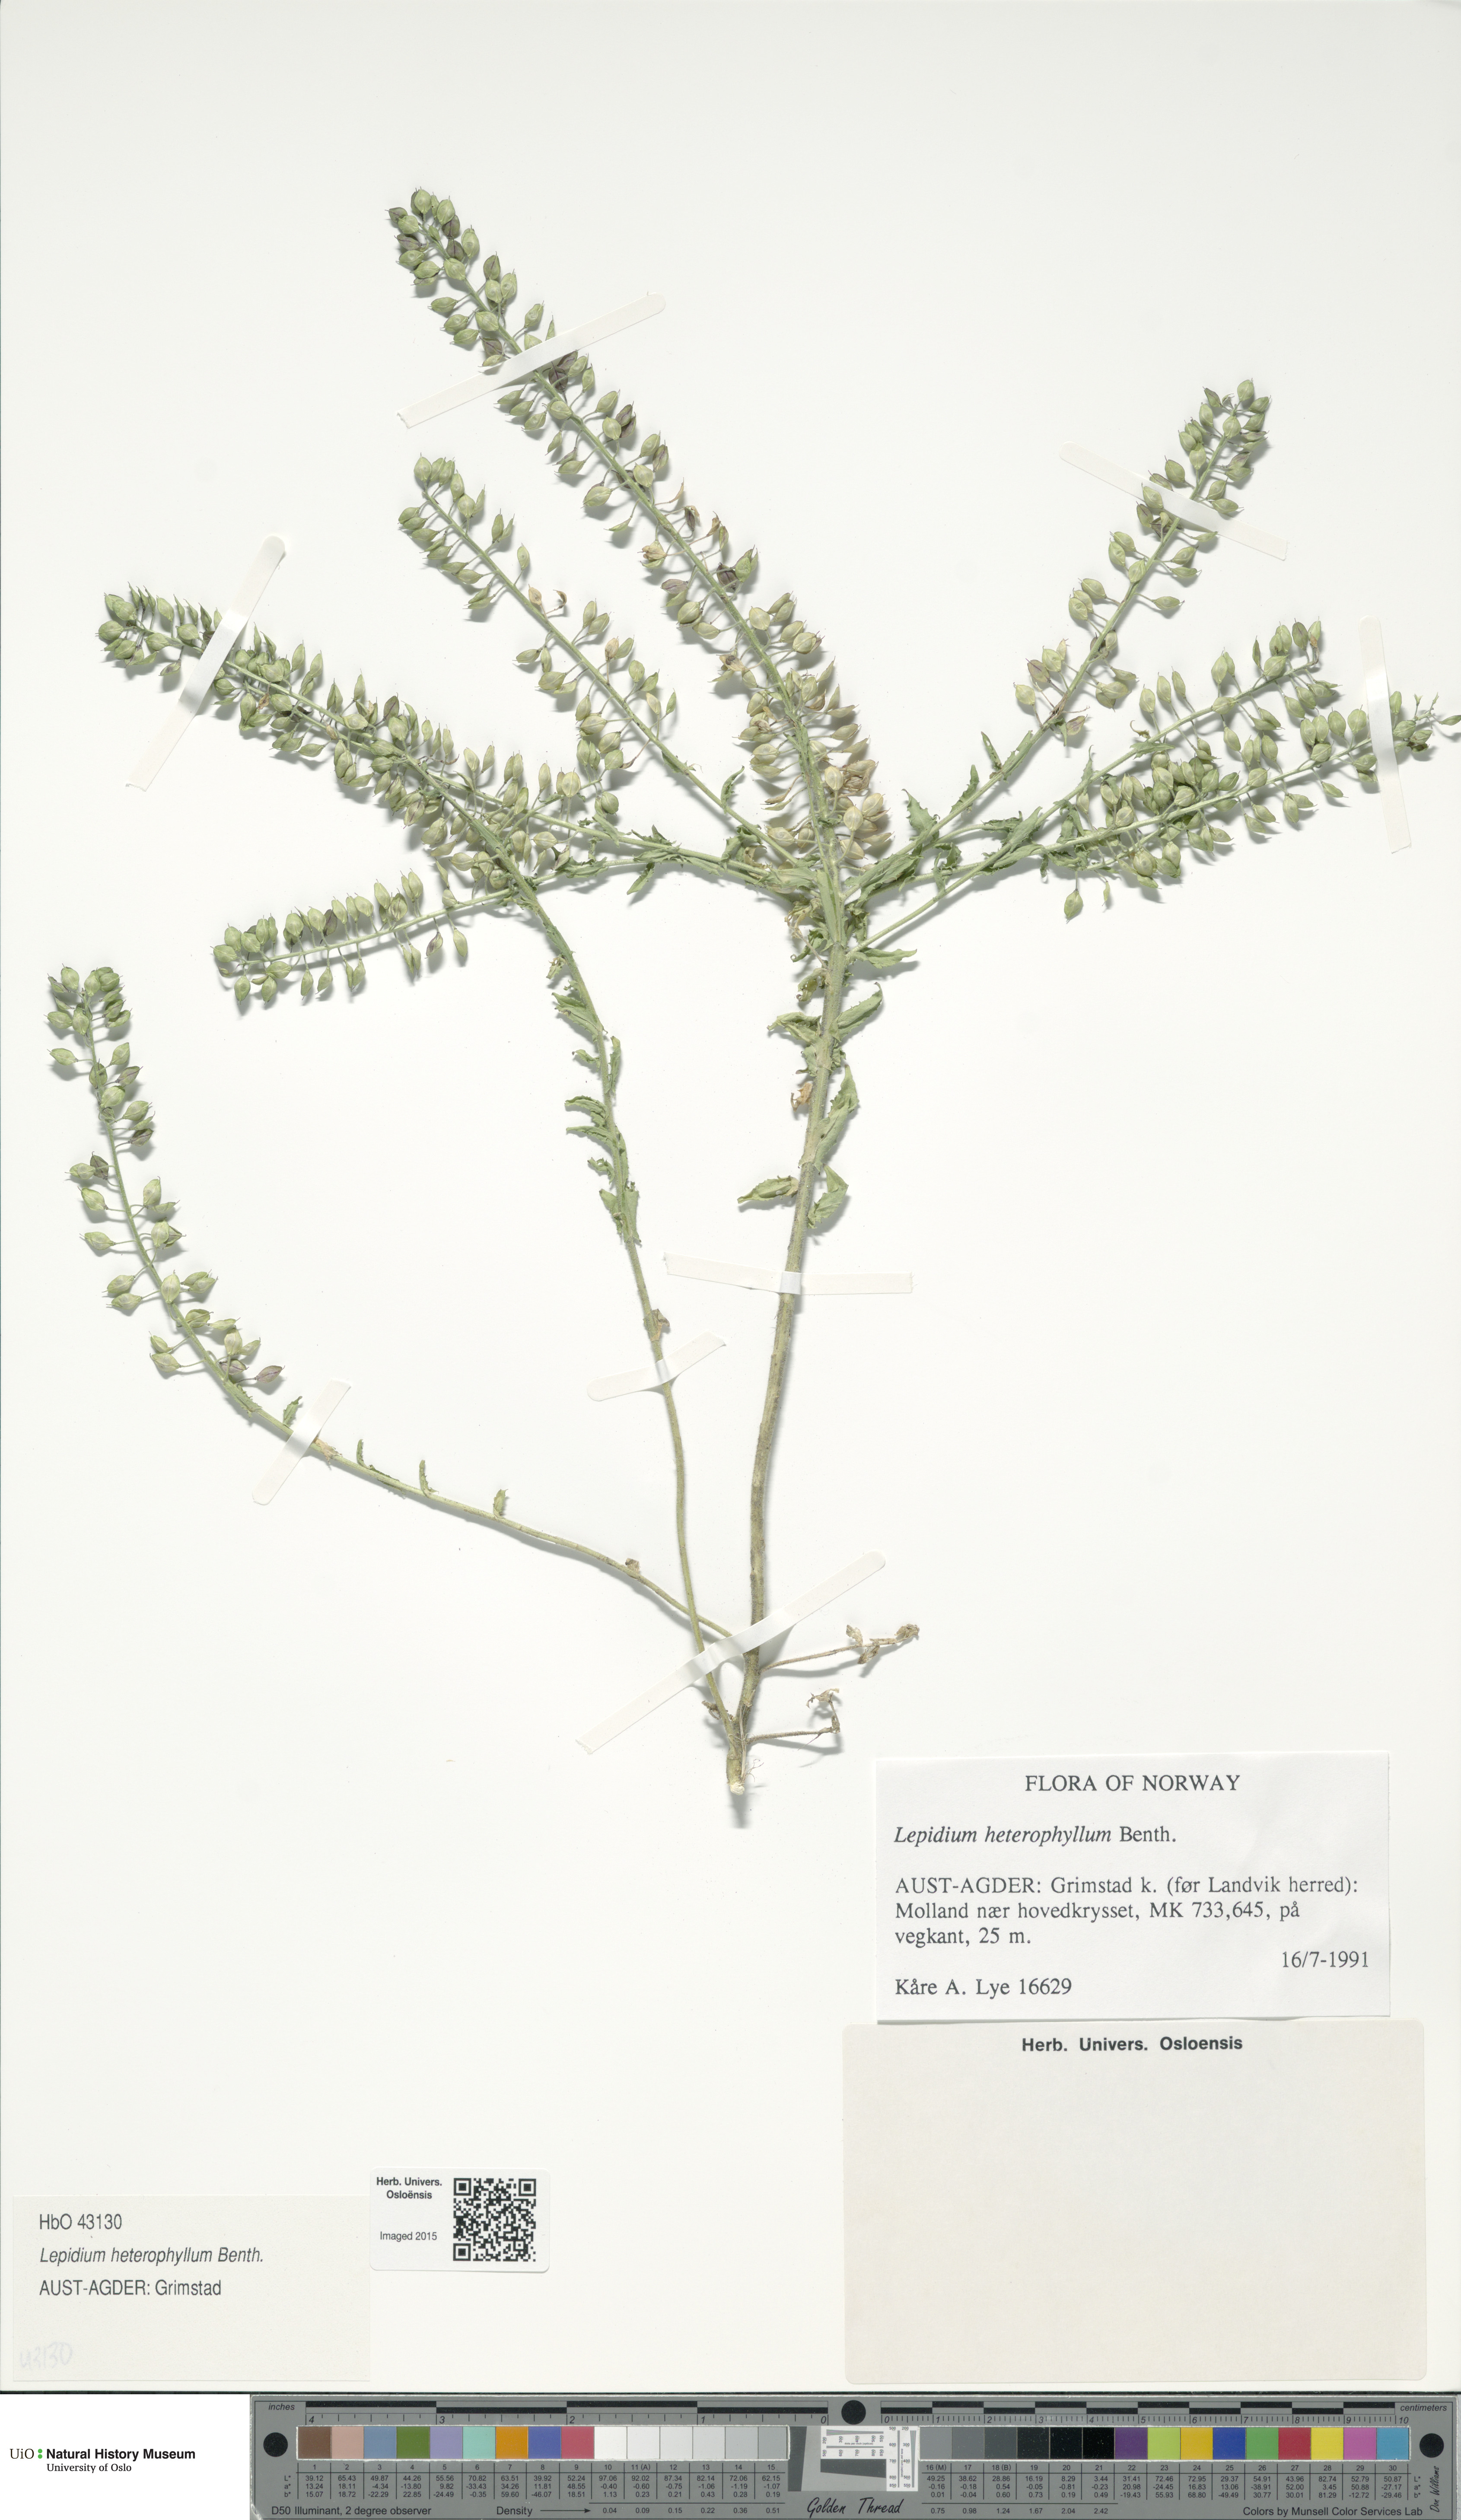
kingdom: Plantae
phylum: Tracheophyta
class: Magnoliopsida
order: Brassicales
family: Brassicaceae
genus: Lepidium
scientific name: Lepidium heterophyllum
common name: Smith's pepperwort
